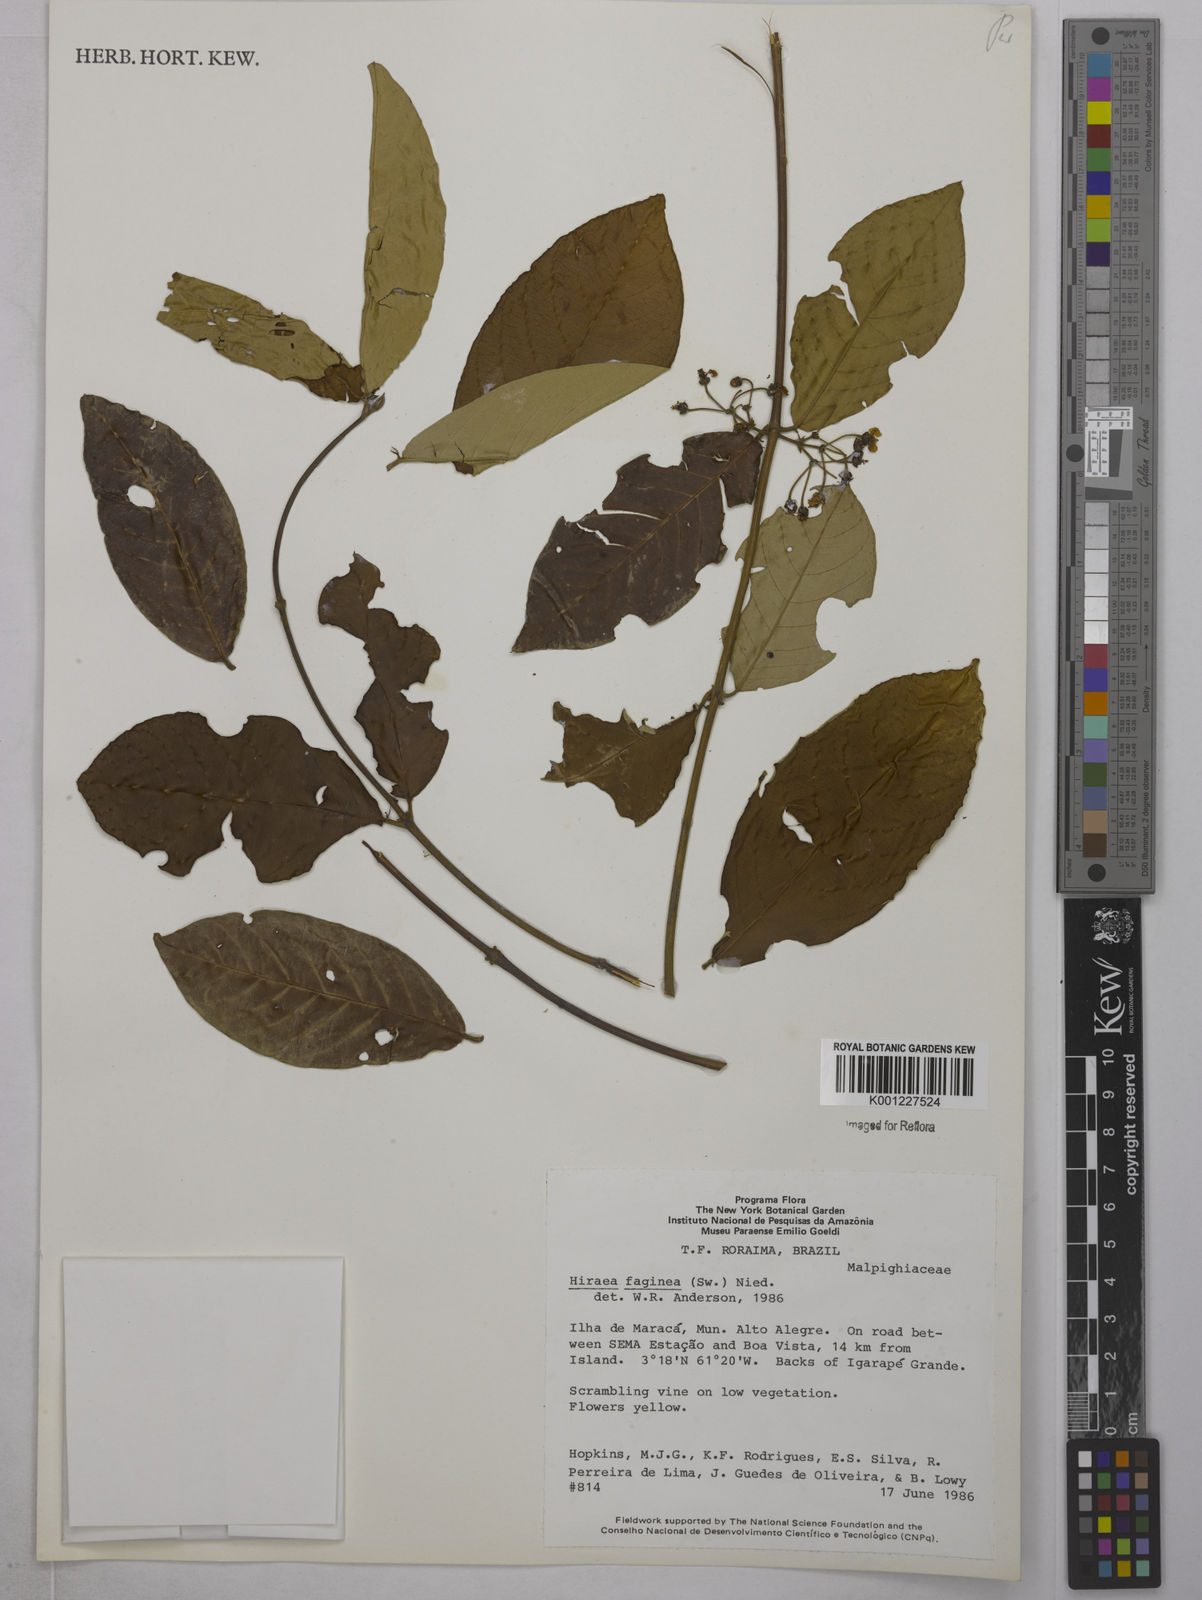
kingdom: Plantae
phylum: Tracheophyta
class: Magnoliopsida
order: Malpighiales
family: Malpighiaceae
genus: Hiraea
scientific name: Hiraea faginea
